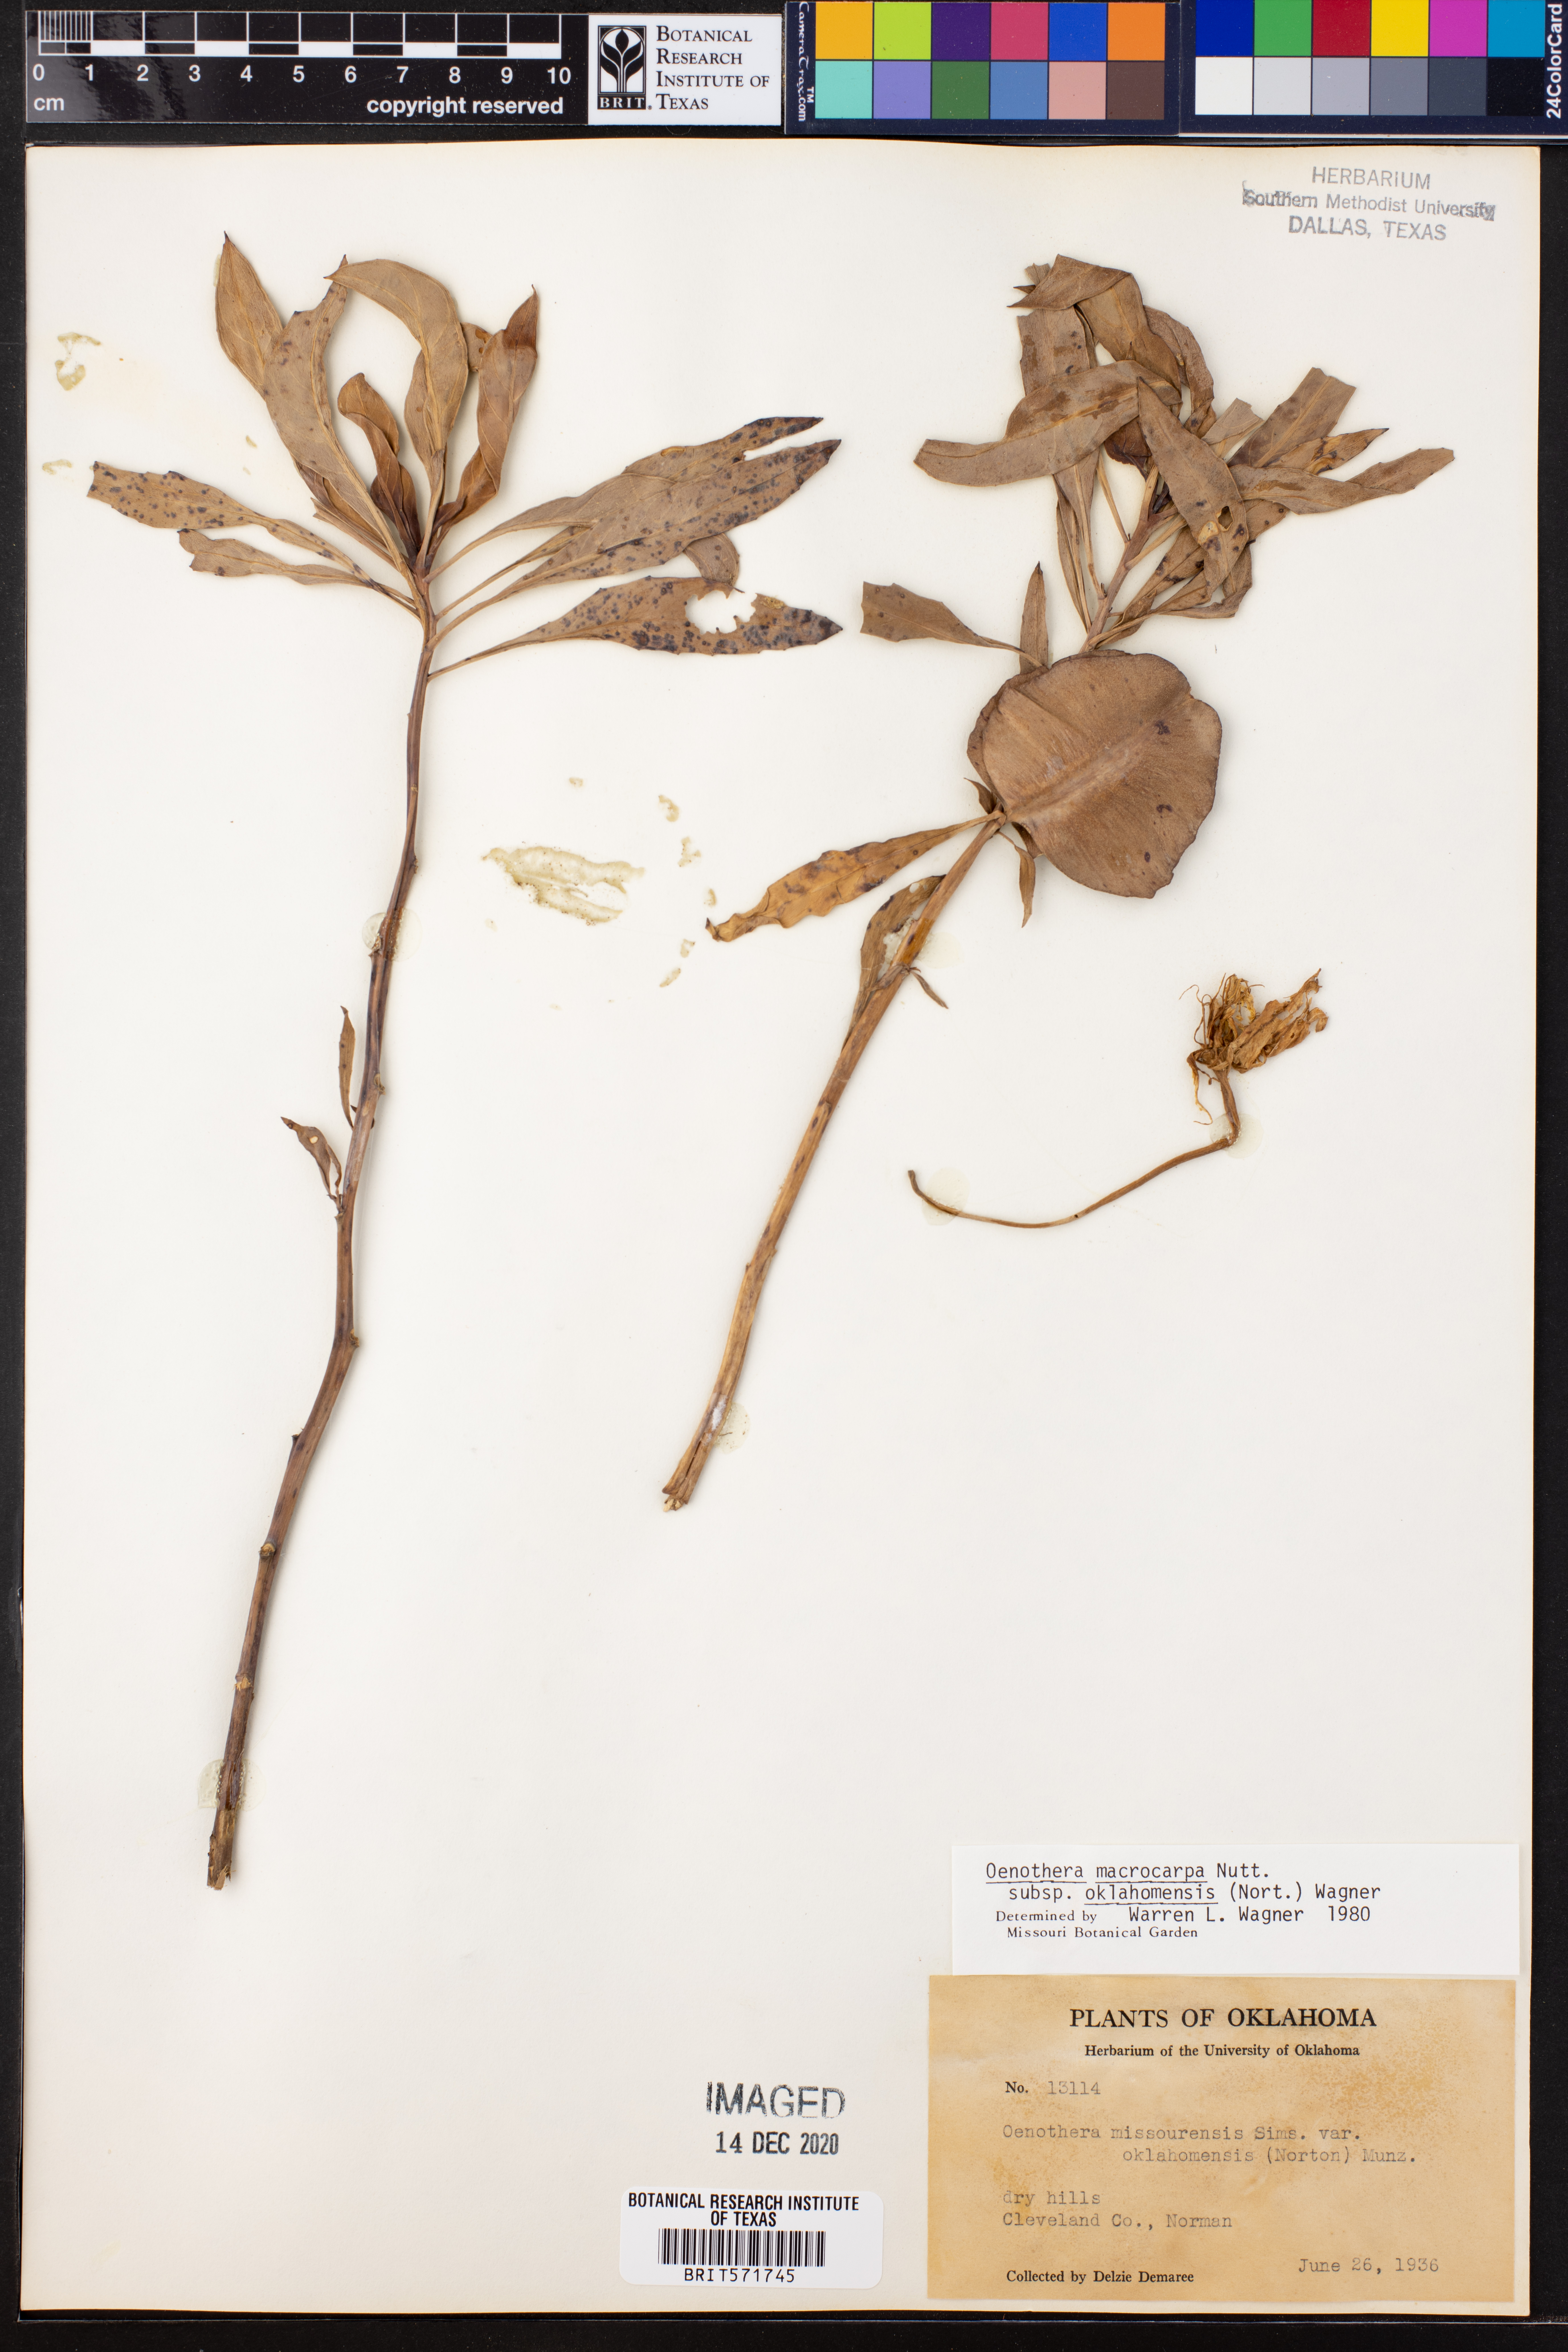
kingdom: Plantae
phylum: Tracheophyta
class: Magnoliopsida
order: Myrtales
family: Onagraceae
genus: Oenothera
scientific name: Oenothera macrocarpa
